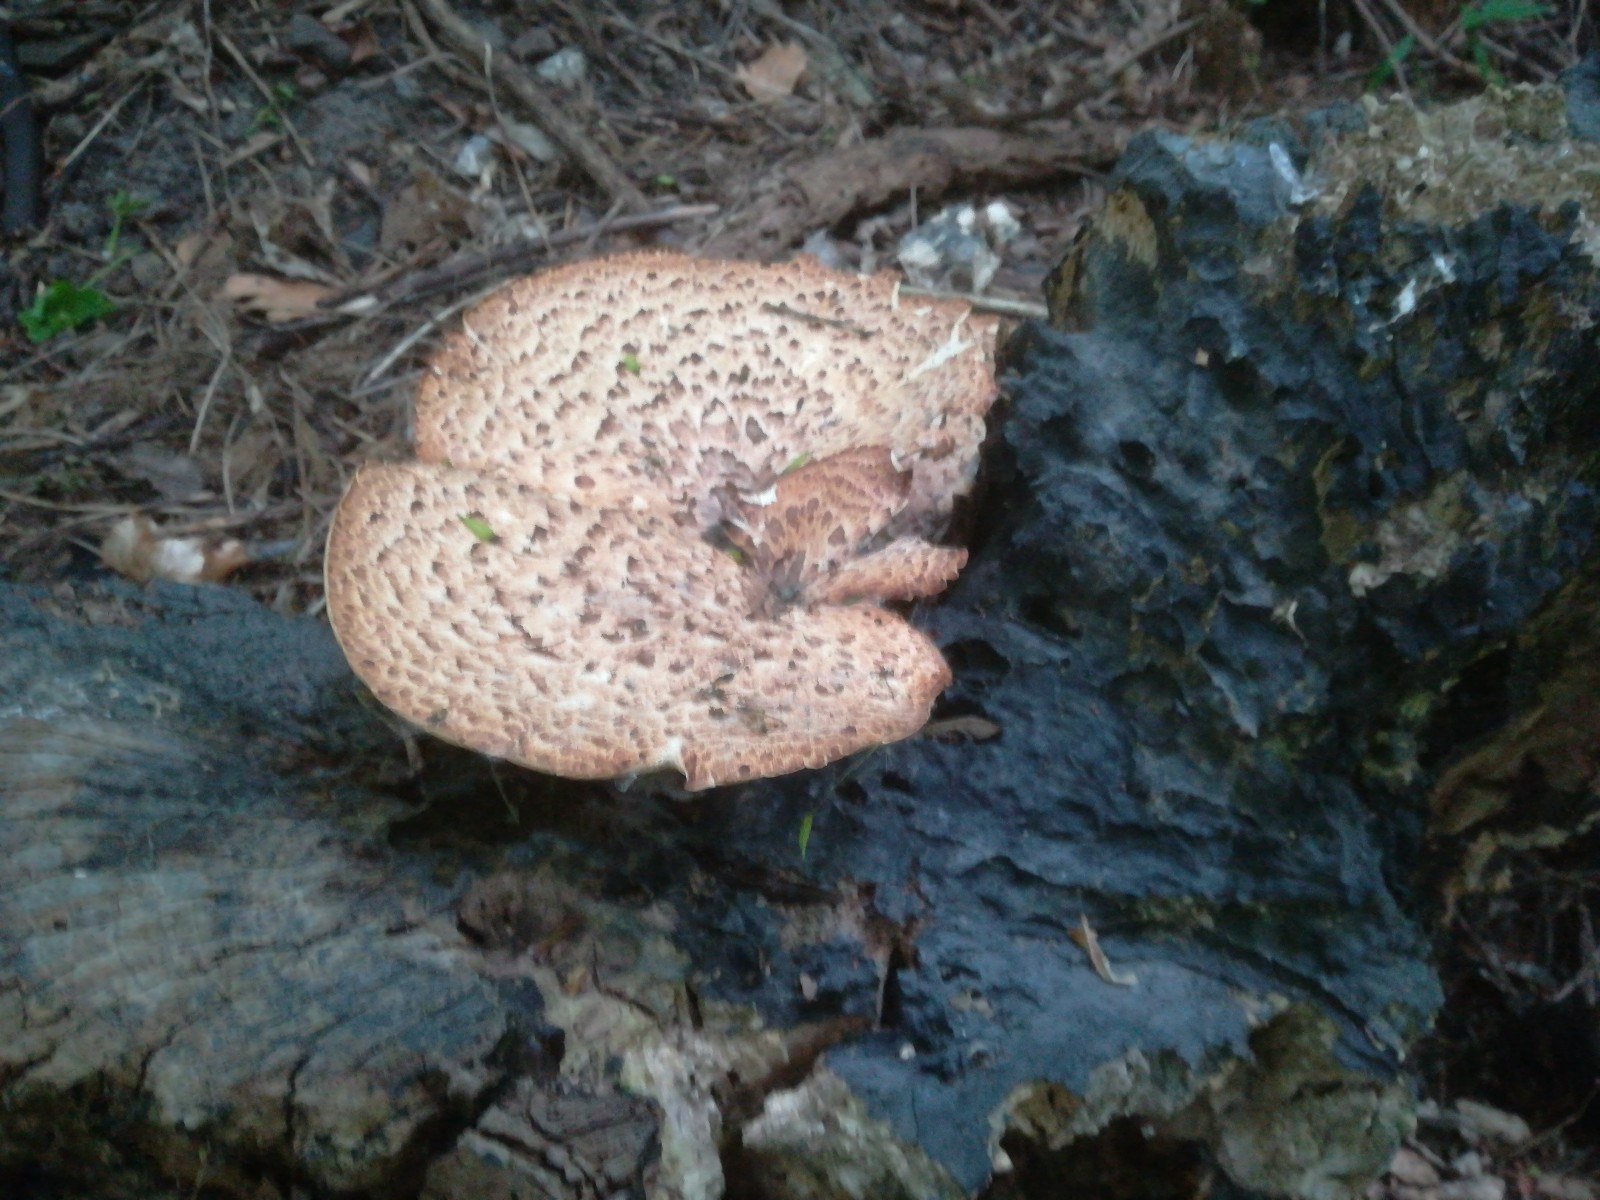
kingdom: Fungi
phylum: Basidiomycota
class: Agaricomycetes
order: Polyporales
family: Polyporaceae
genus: Cerioporus
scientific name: Cerioporus squamosus
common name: skællet stilkporesvamp
